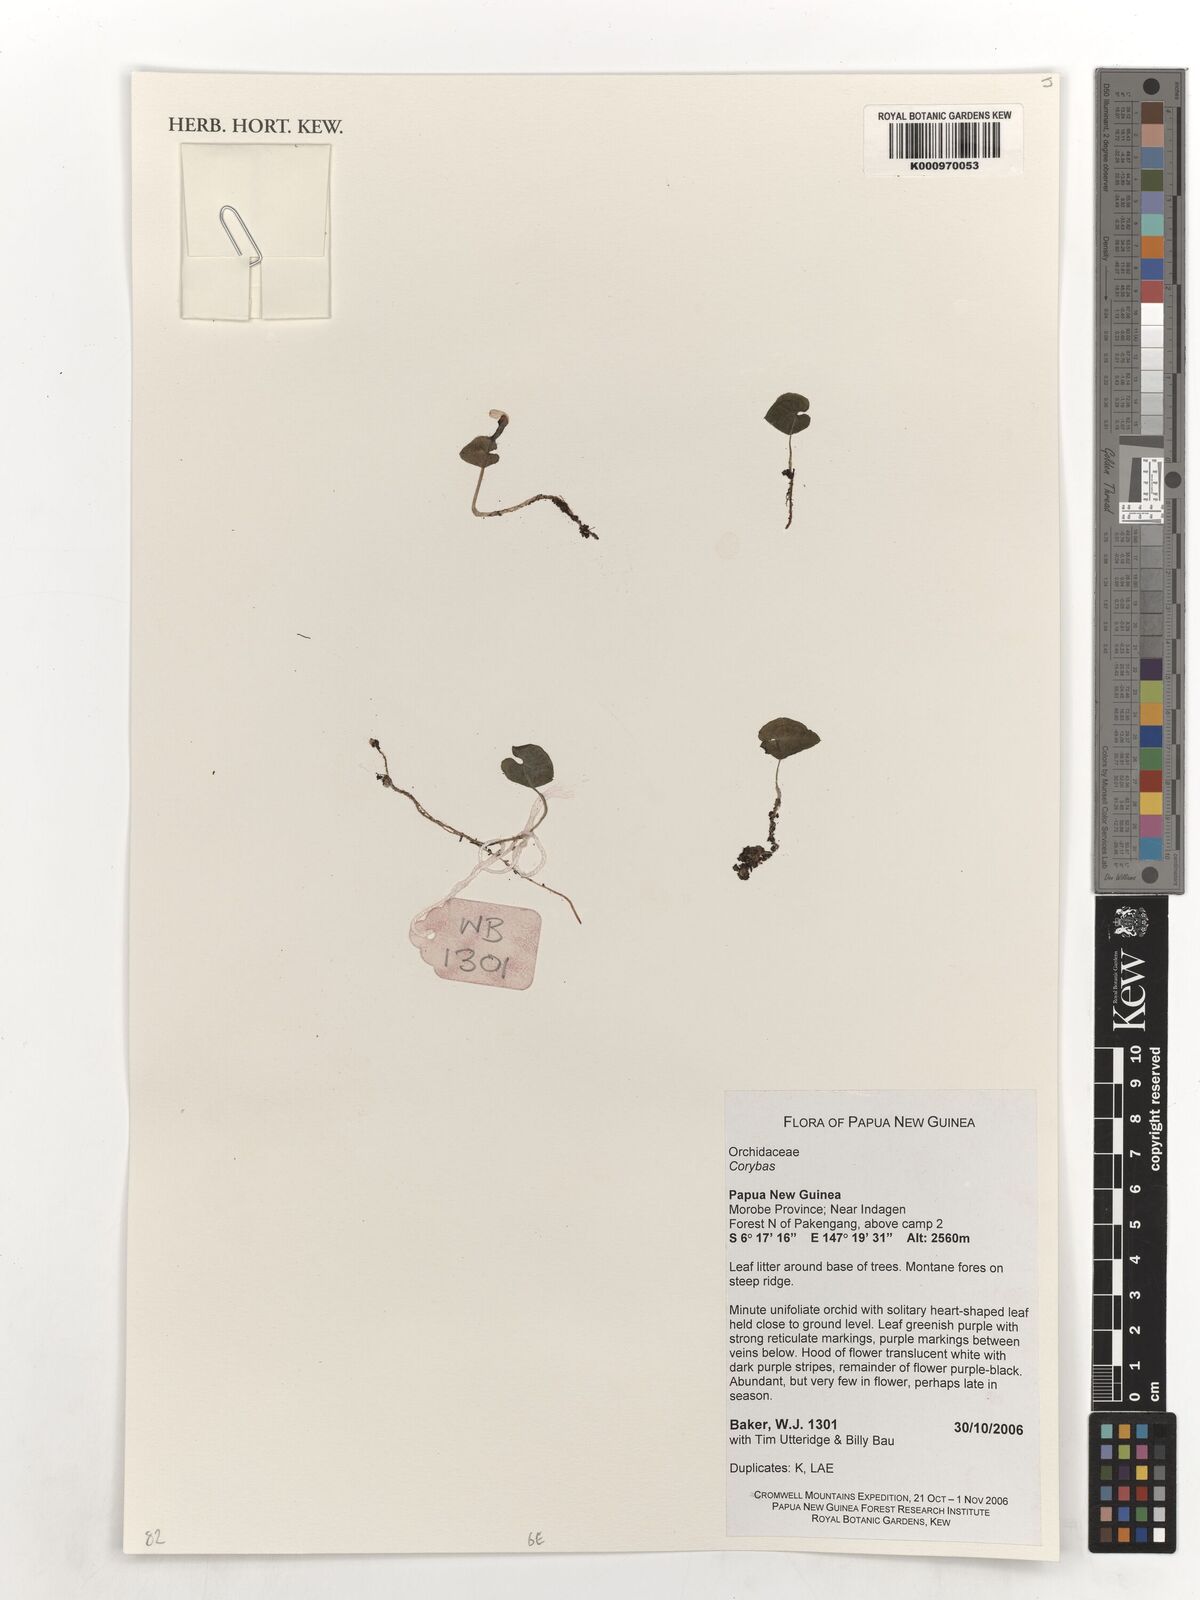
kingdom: Plantae
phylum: Tracheophyta
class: Liliopsida
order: Asparagales
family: Orchidaceae
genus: Corybas
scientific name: Corybas
